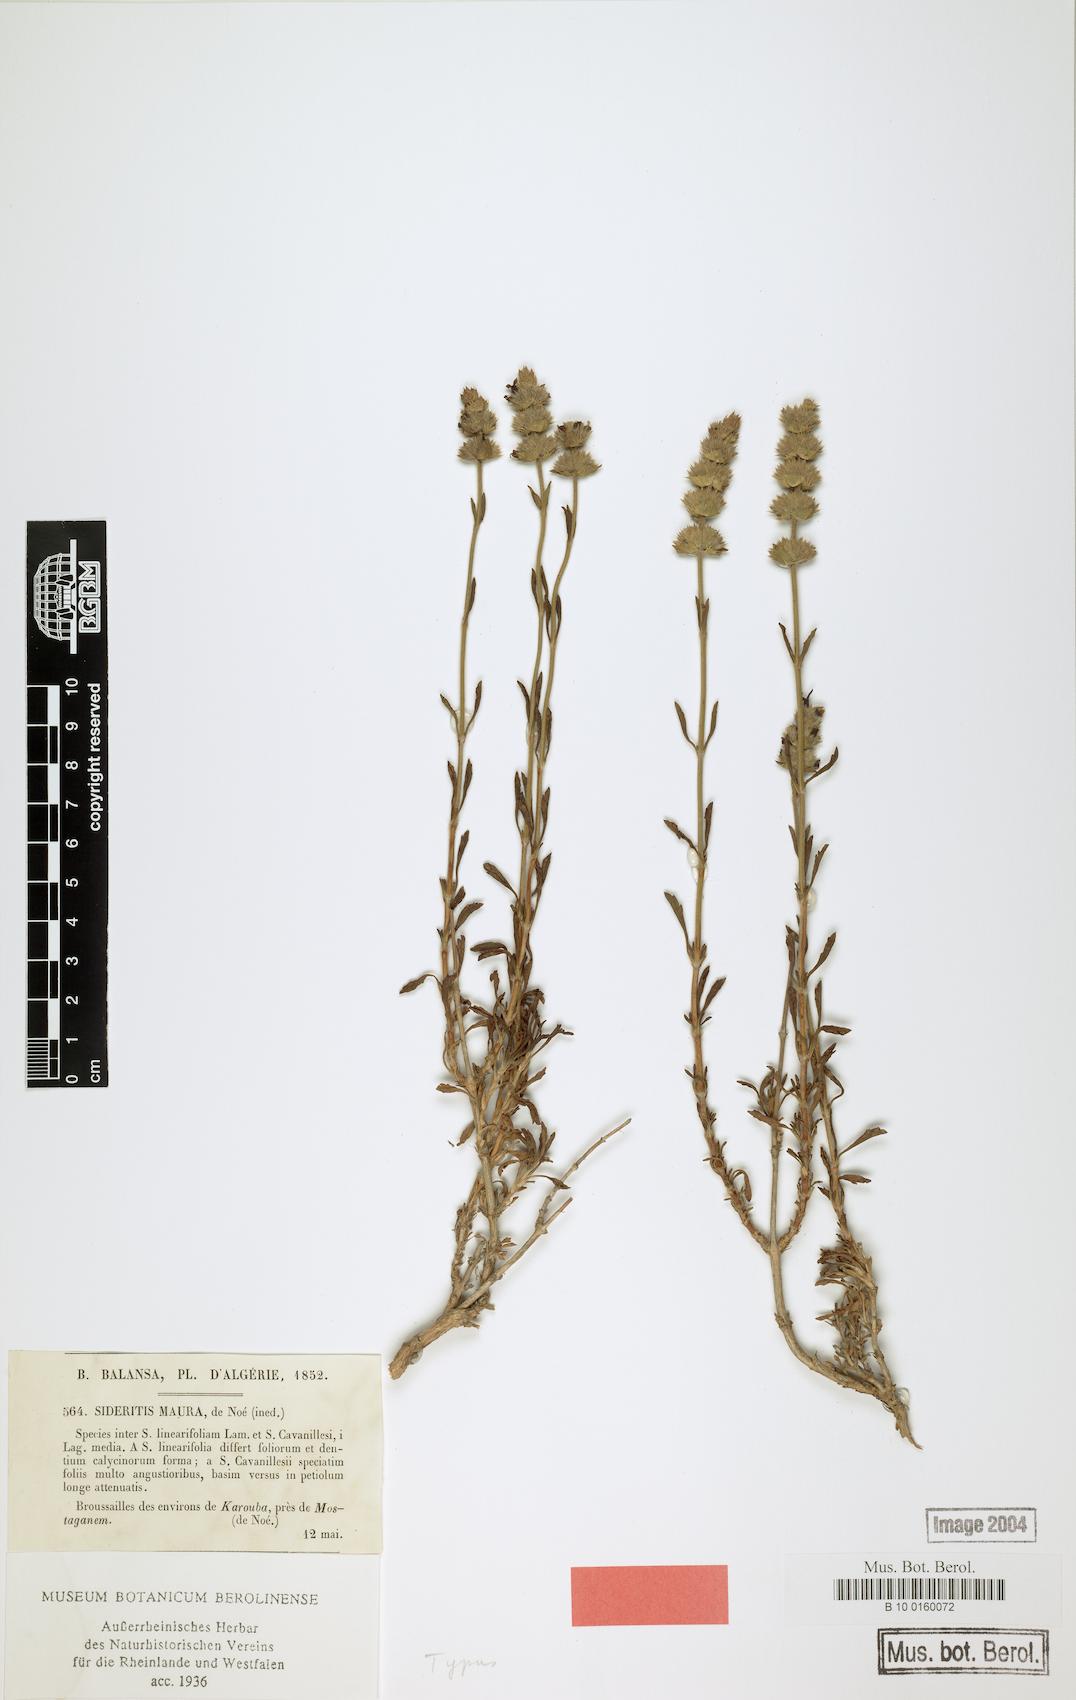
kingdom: Plantae
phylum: Tracheophyta
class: Magnoliopsida
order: Lamiales
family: Lamiaceae
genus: Sideritis
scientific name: Sideritis maura
